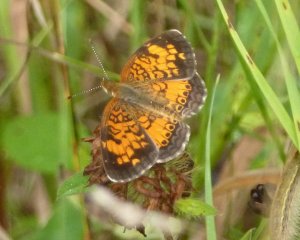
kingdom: Animalia
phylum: Arthropoda
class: Insecta
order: Lepidoptera
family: Nymphalidae
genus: Phyciodes
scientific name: Phyciodes tharos
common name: Northern Crescent
